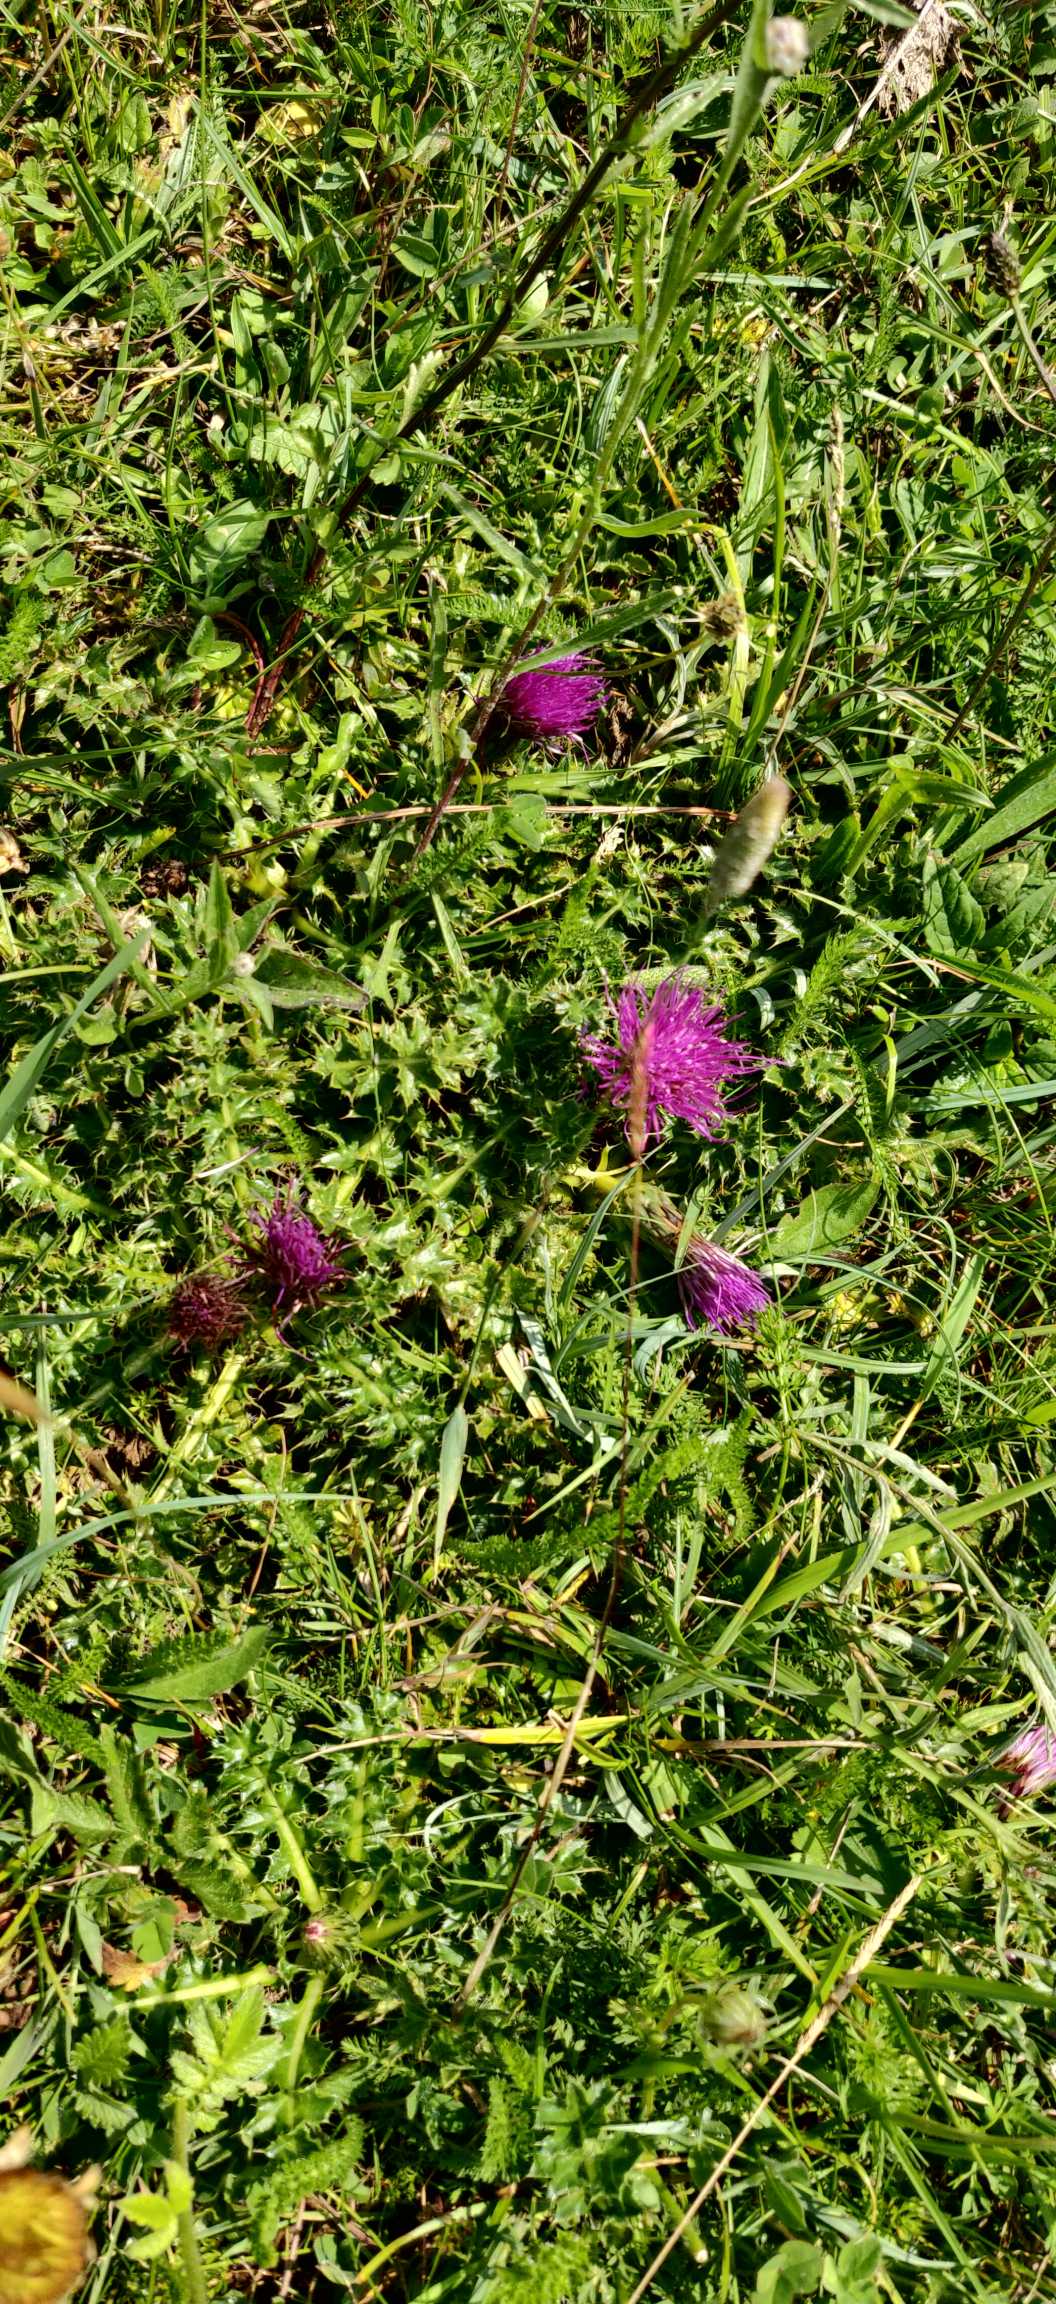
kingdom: Plantae
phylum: Tracheophyta
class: Magnoliopsida
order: Asterales
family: Asteraceae
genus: Cirsium
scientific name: Cirsium acaule
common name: Lav tidsel
